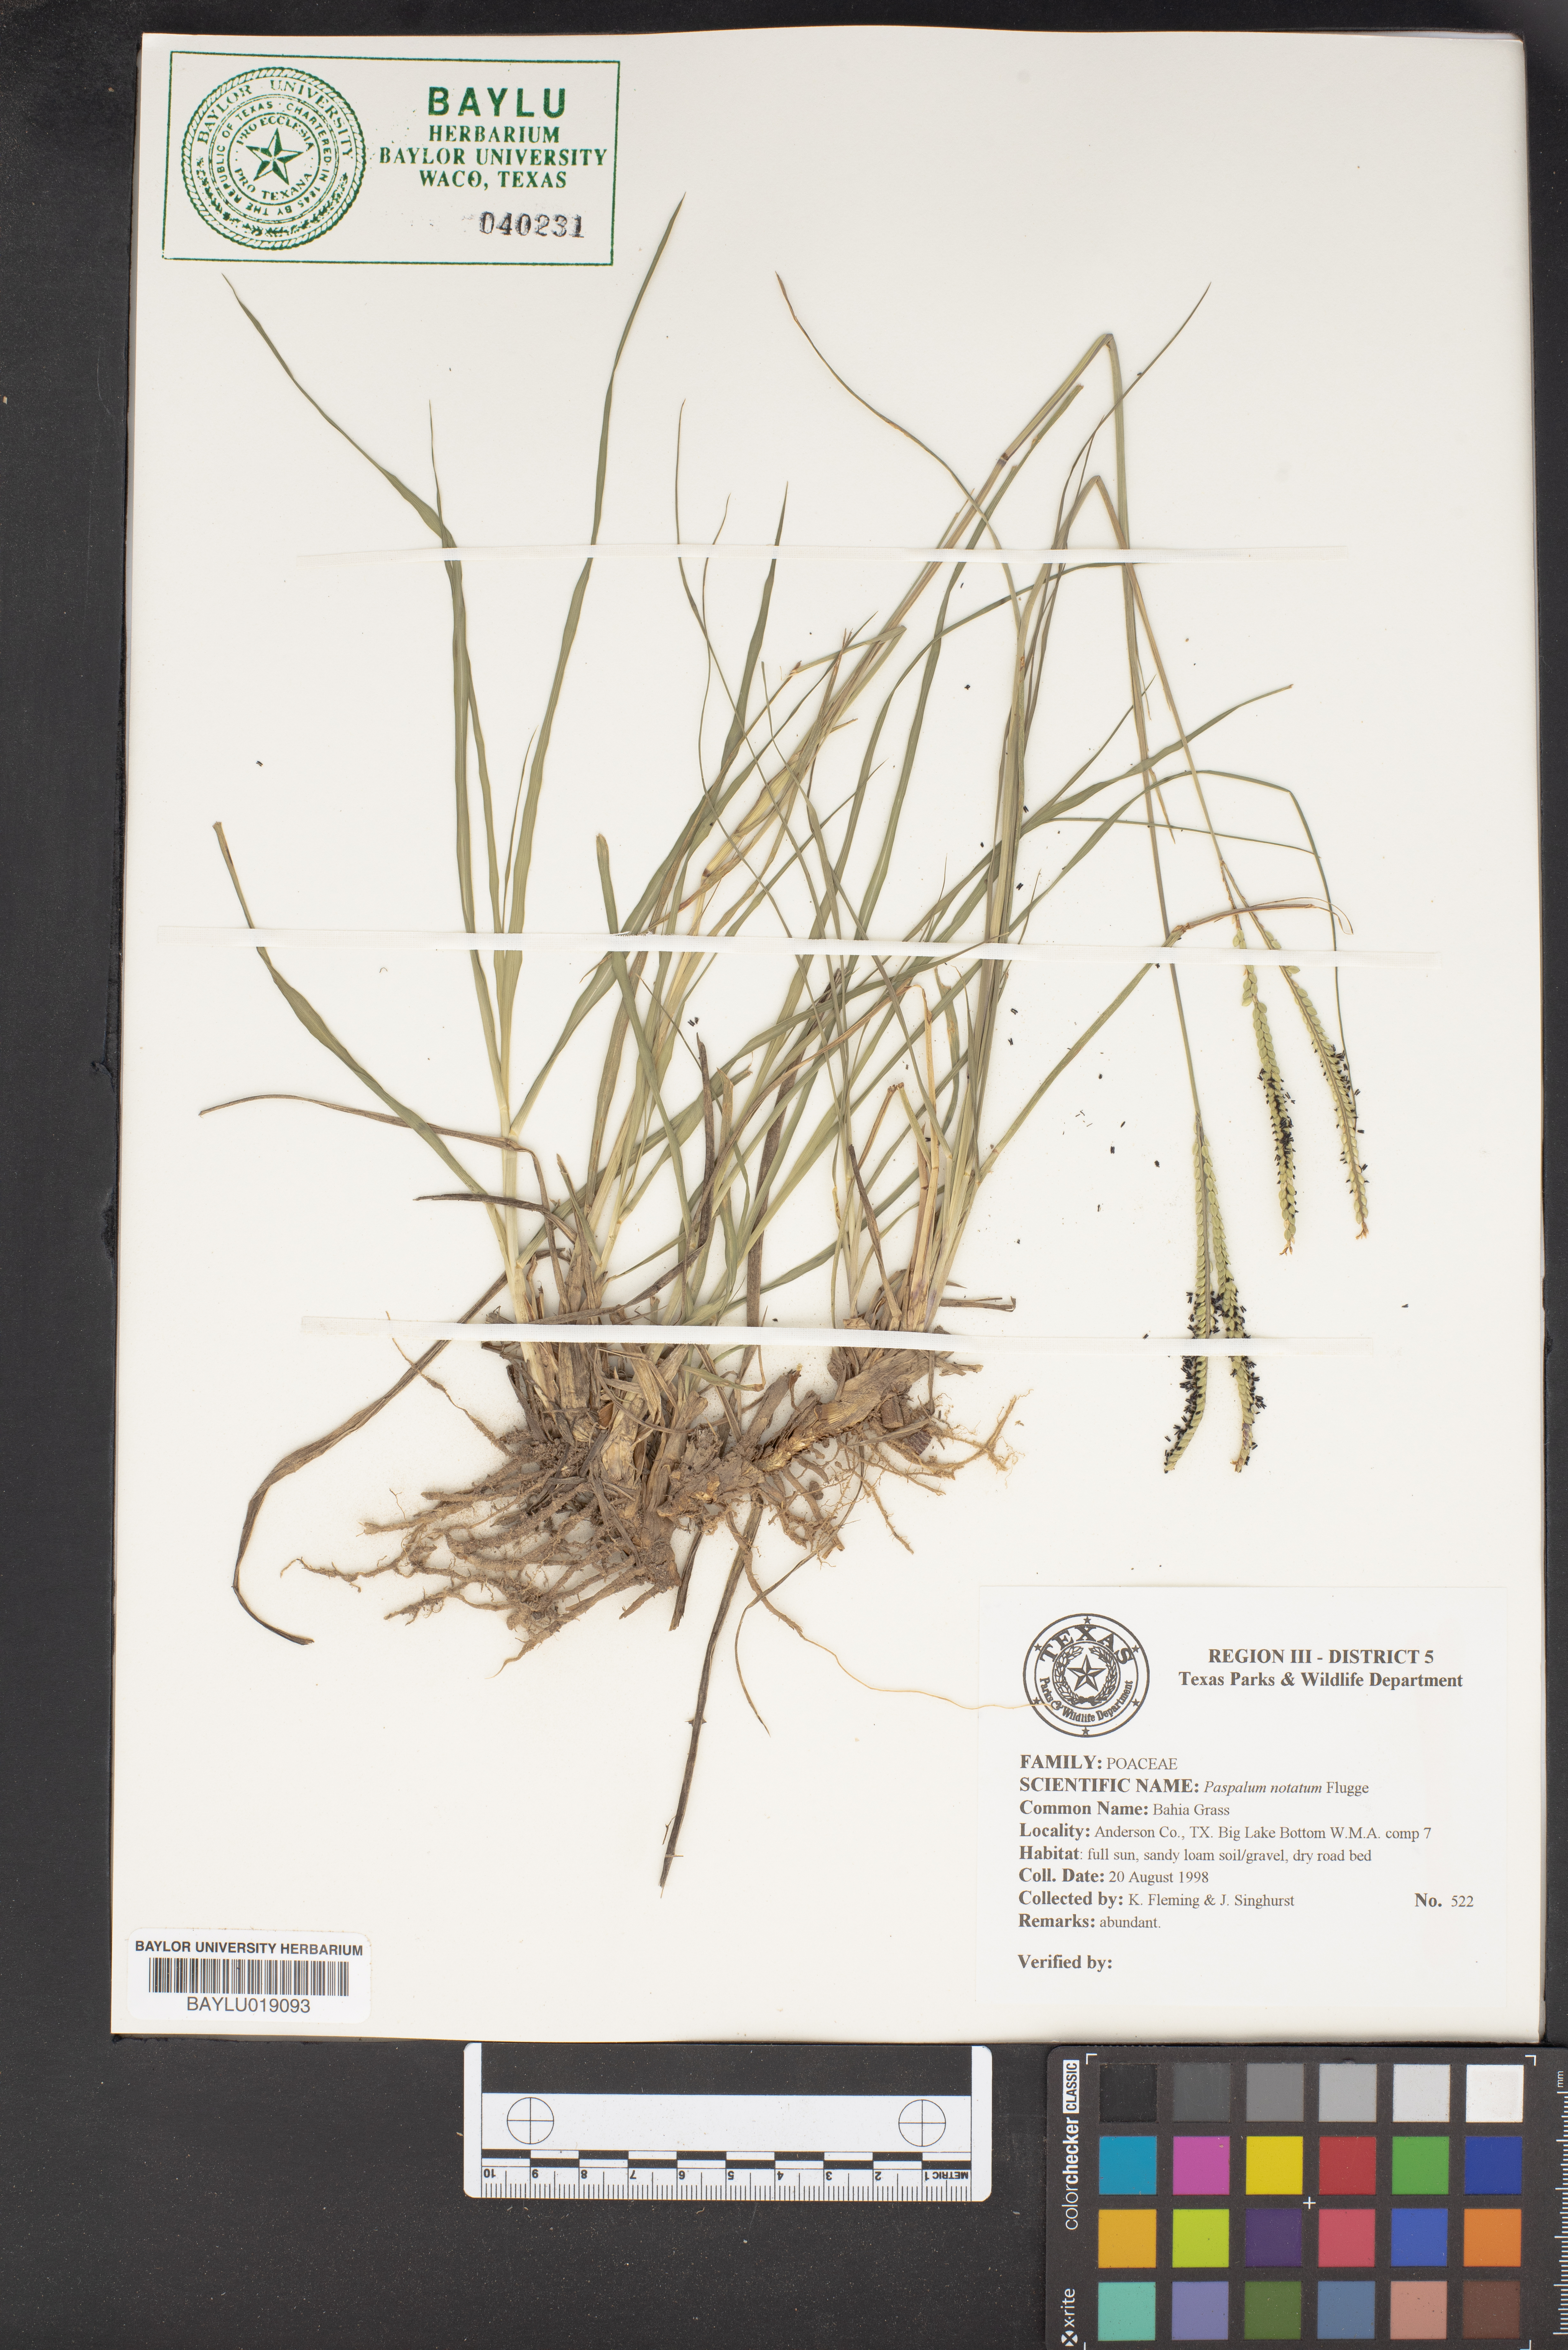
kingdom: Plantae
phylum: Tracheophyta
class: Liliopsida
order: Poales
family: Poaceae
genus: Paspalum
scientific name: Paspalum notatum
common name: Bahiagrass
